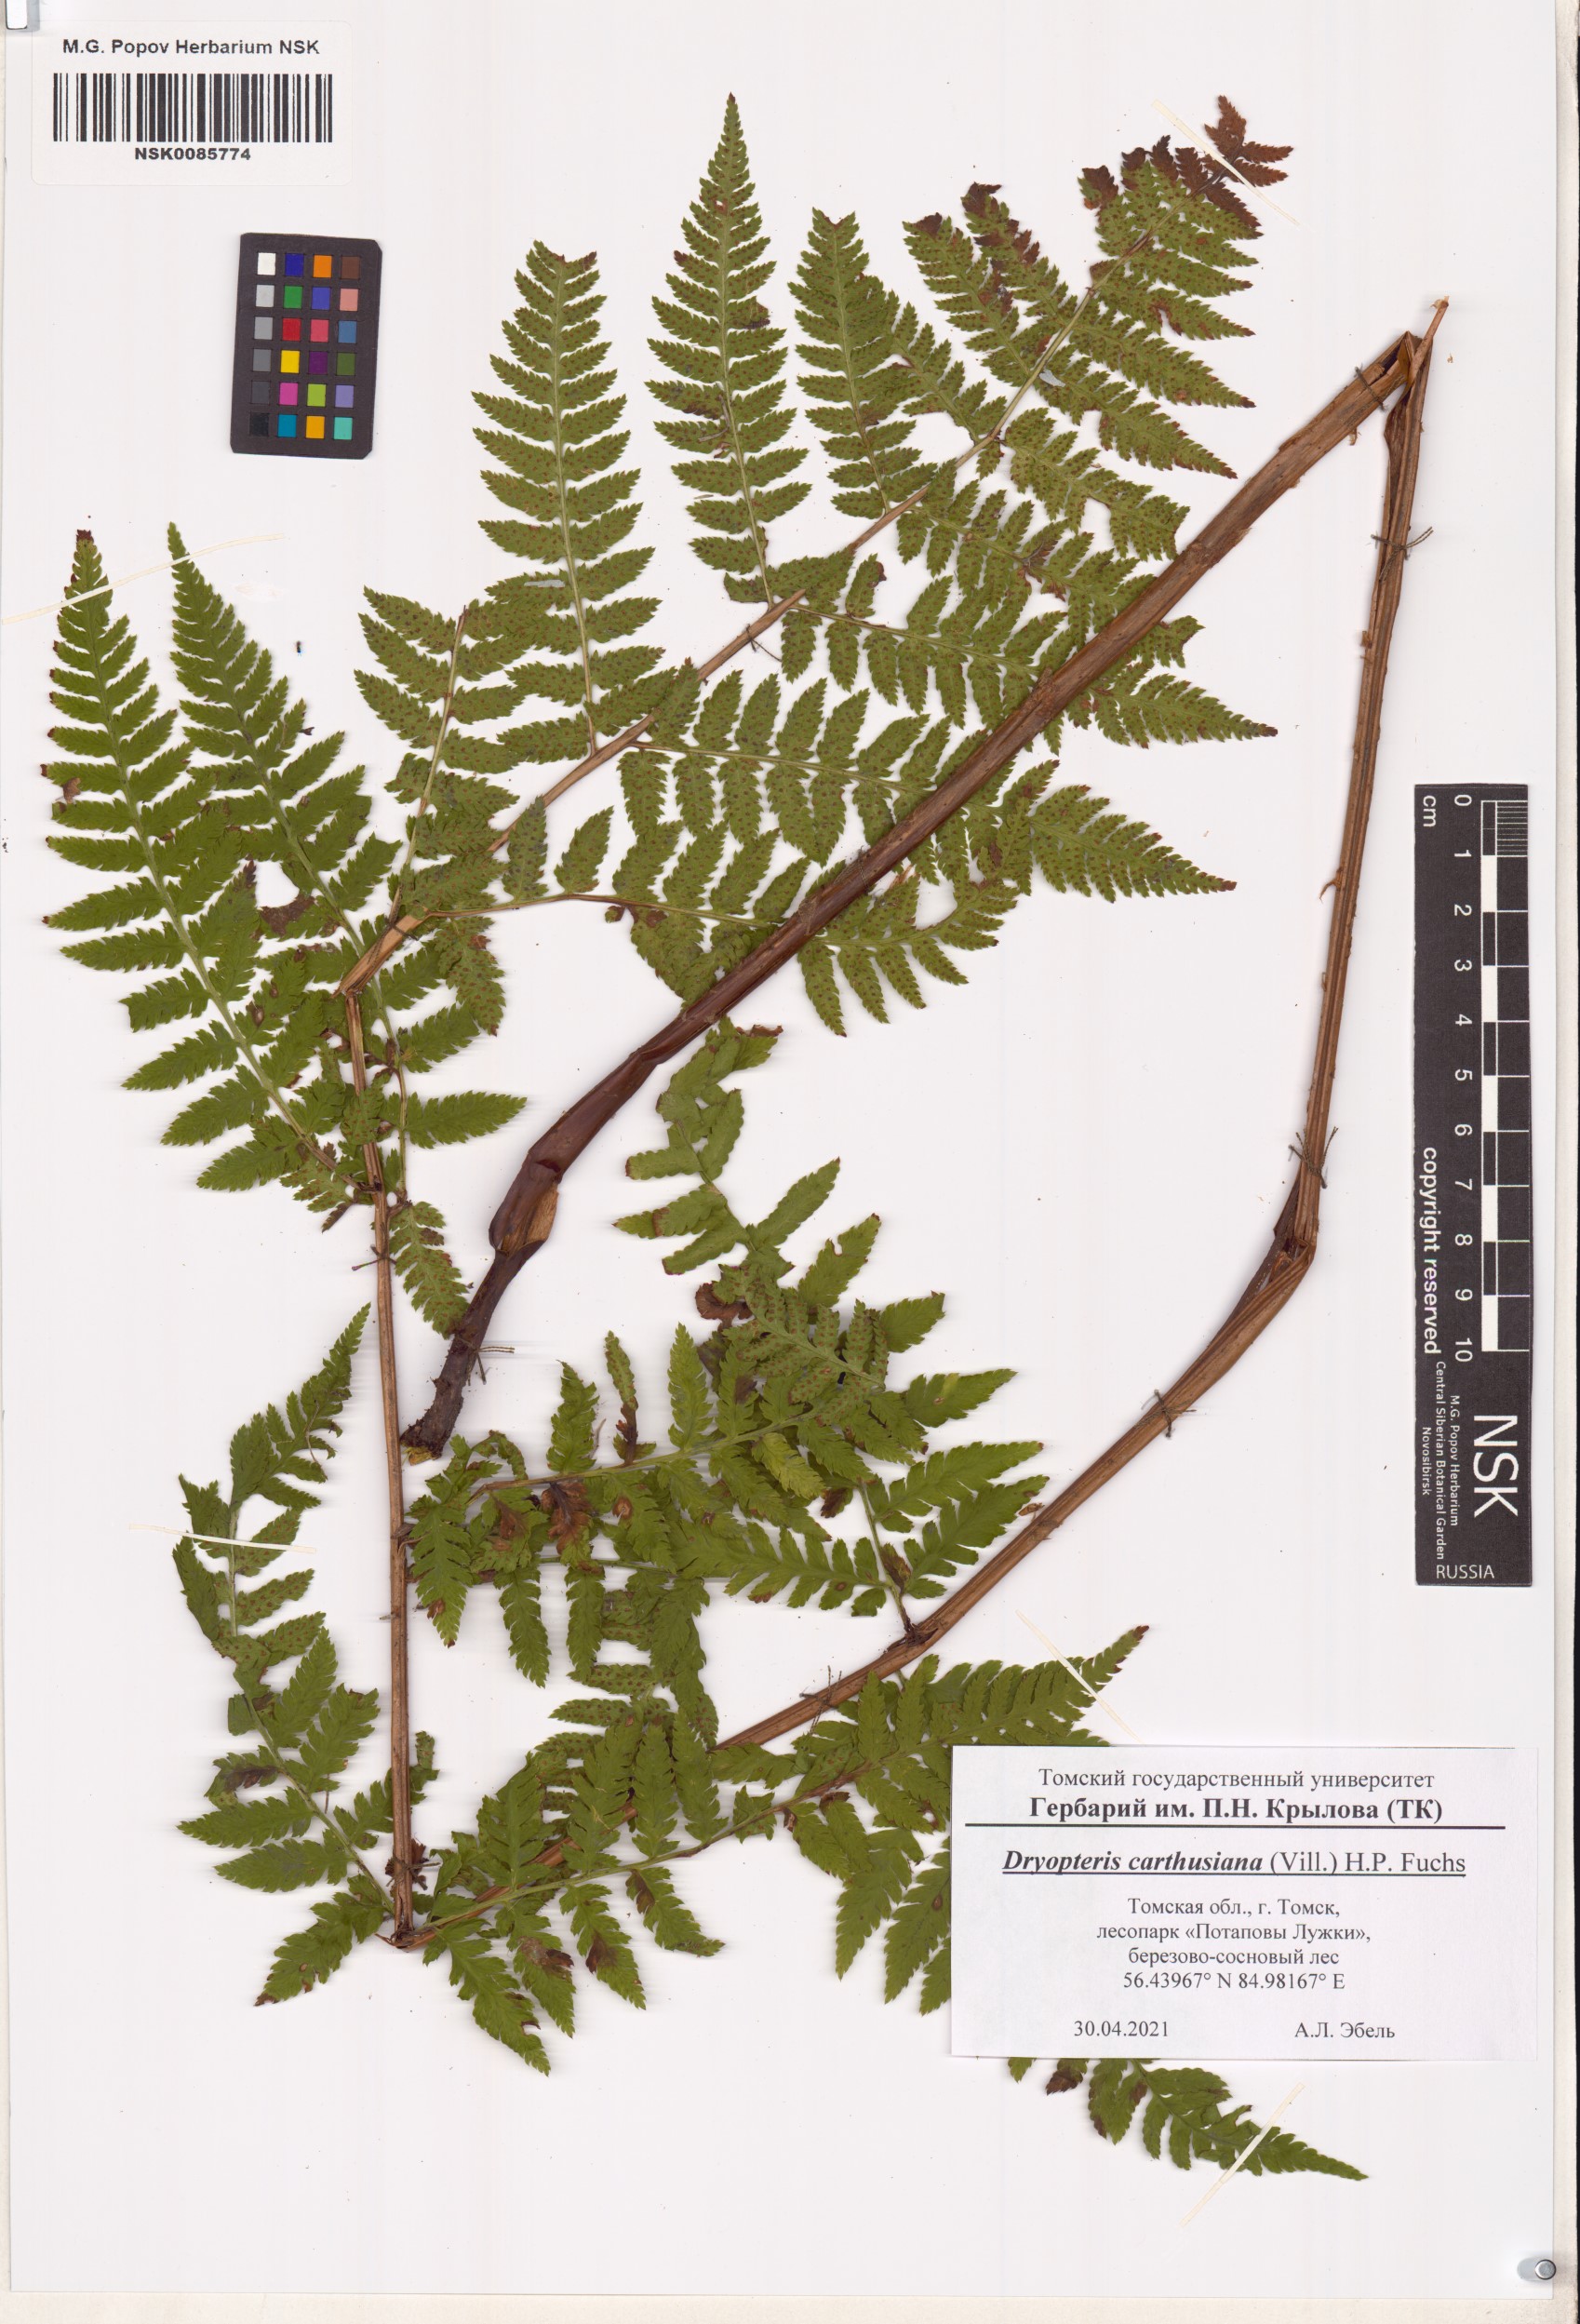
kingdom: Plantae
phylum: Tracheophyta
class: Polypodiopsida
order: Polypodiales
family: Dryopteridaceae
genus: Dryopteris
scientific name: Dryopteris carthusiana
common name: Narrow buckler-fern
